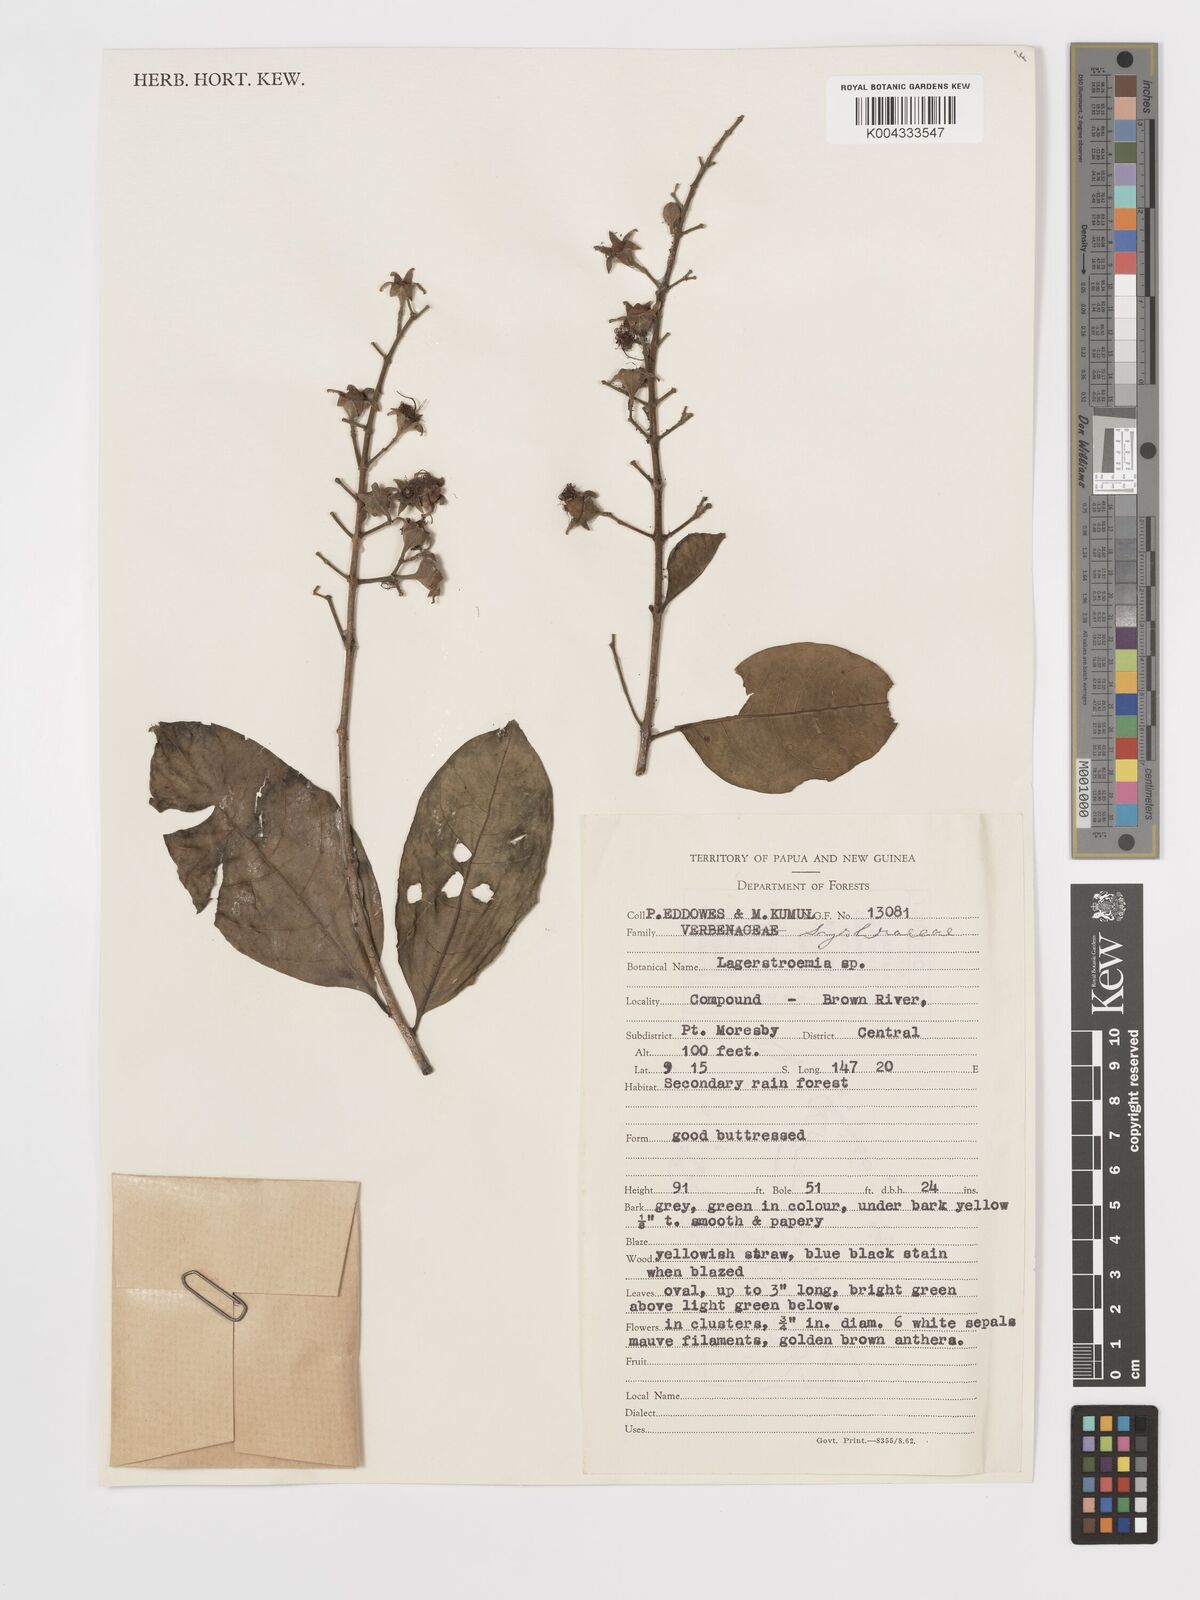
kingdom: Plantae
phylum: Tracheophyta
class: Magnoliopsida
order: Myrtales
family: Lythraceae
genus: Lagerstroemia
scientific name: Lagerstroemia
